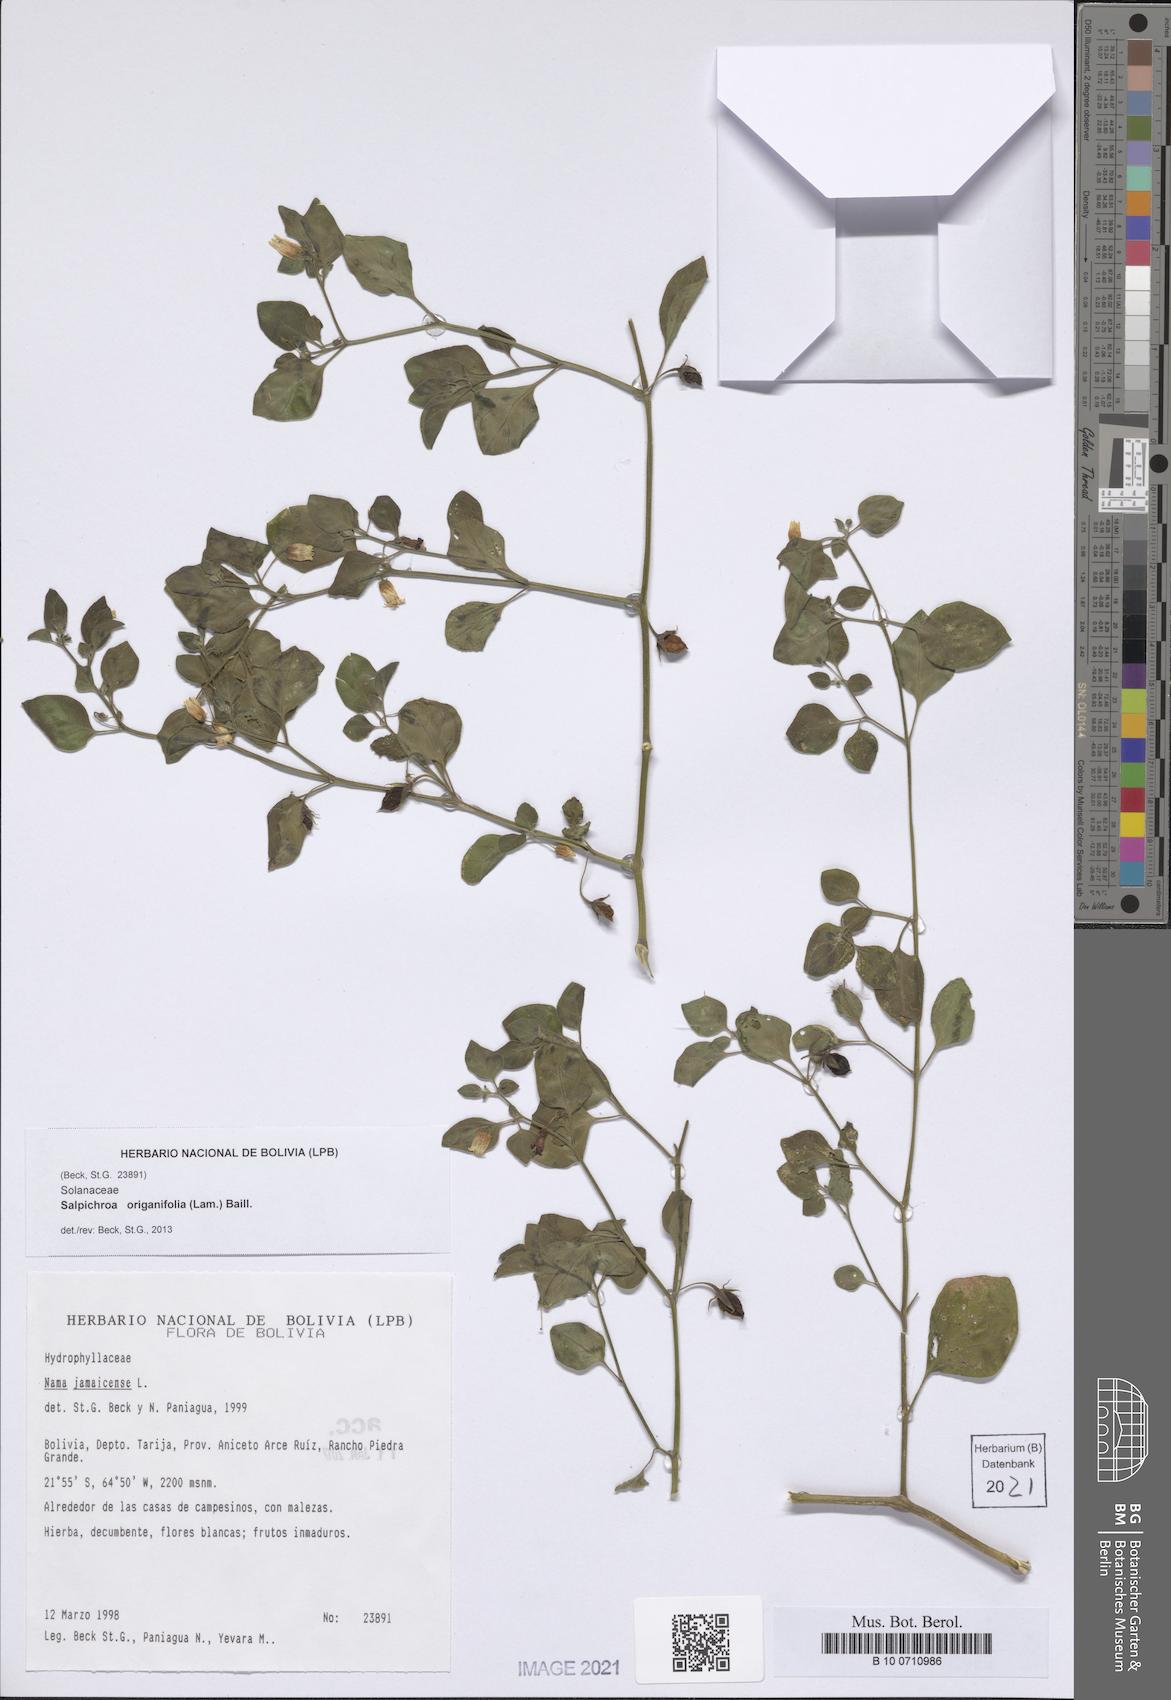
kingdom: Plantae
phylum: Tracheophyta
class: Magnoliopsida
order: Solanales
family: Solanaceae
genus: Salpichroa
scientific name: Salpichroa origanifolia
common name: Lily-of-the-valley-vine
